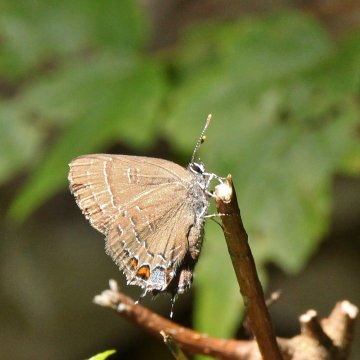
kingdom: Animalia
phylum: Arthropoda
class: Insecta
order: Lepidoptera
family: Lycaenidae
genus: Satyrium
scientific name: Satyrium calanus
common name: Banded Hairstreak
